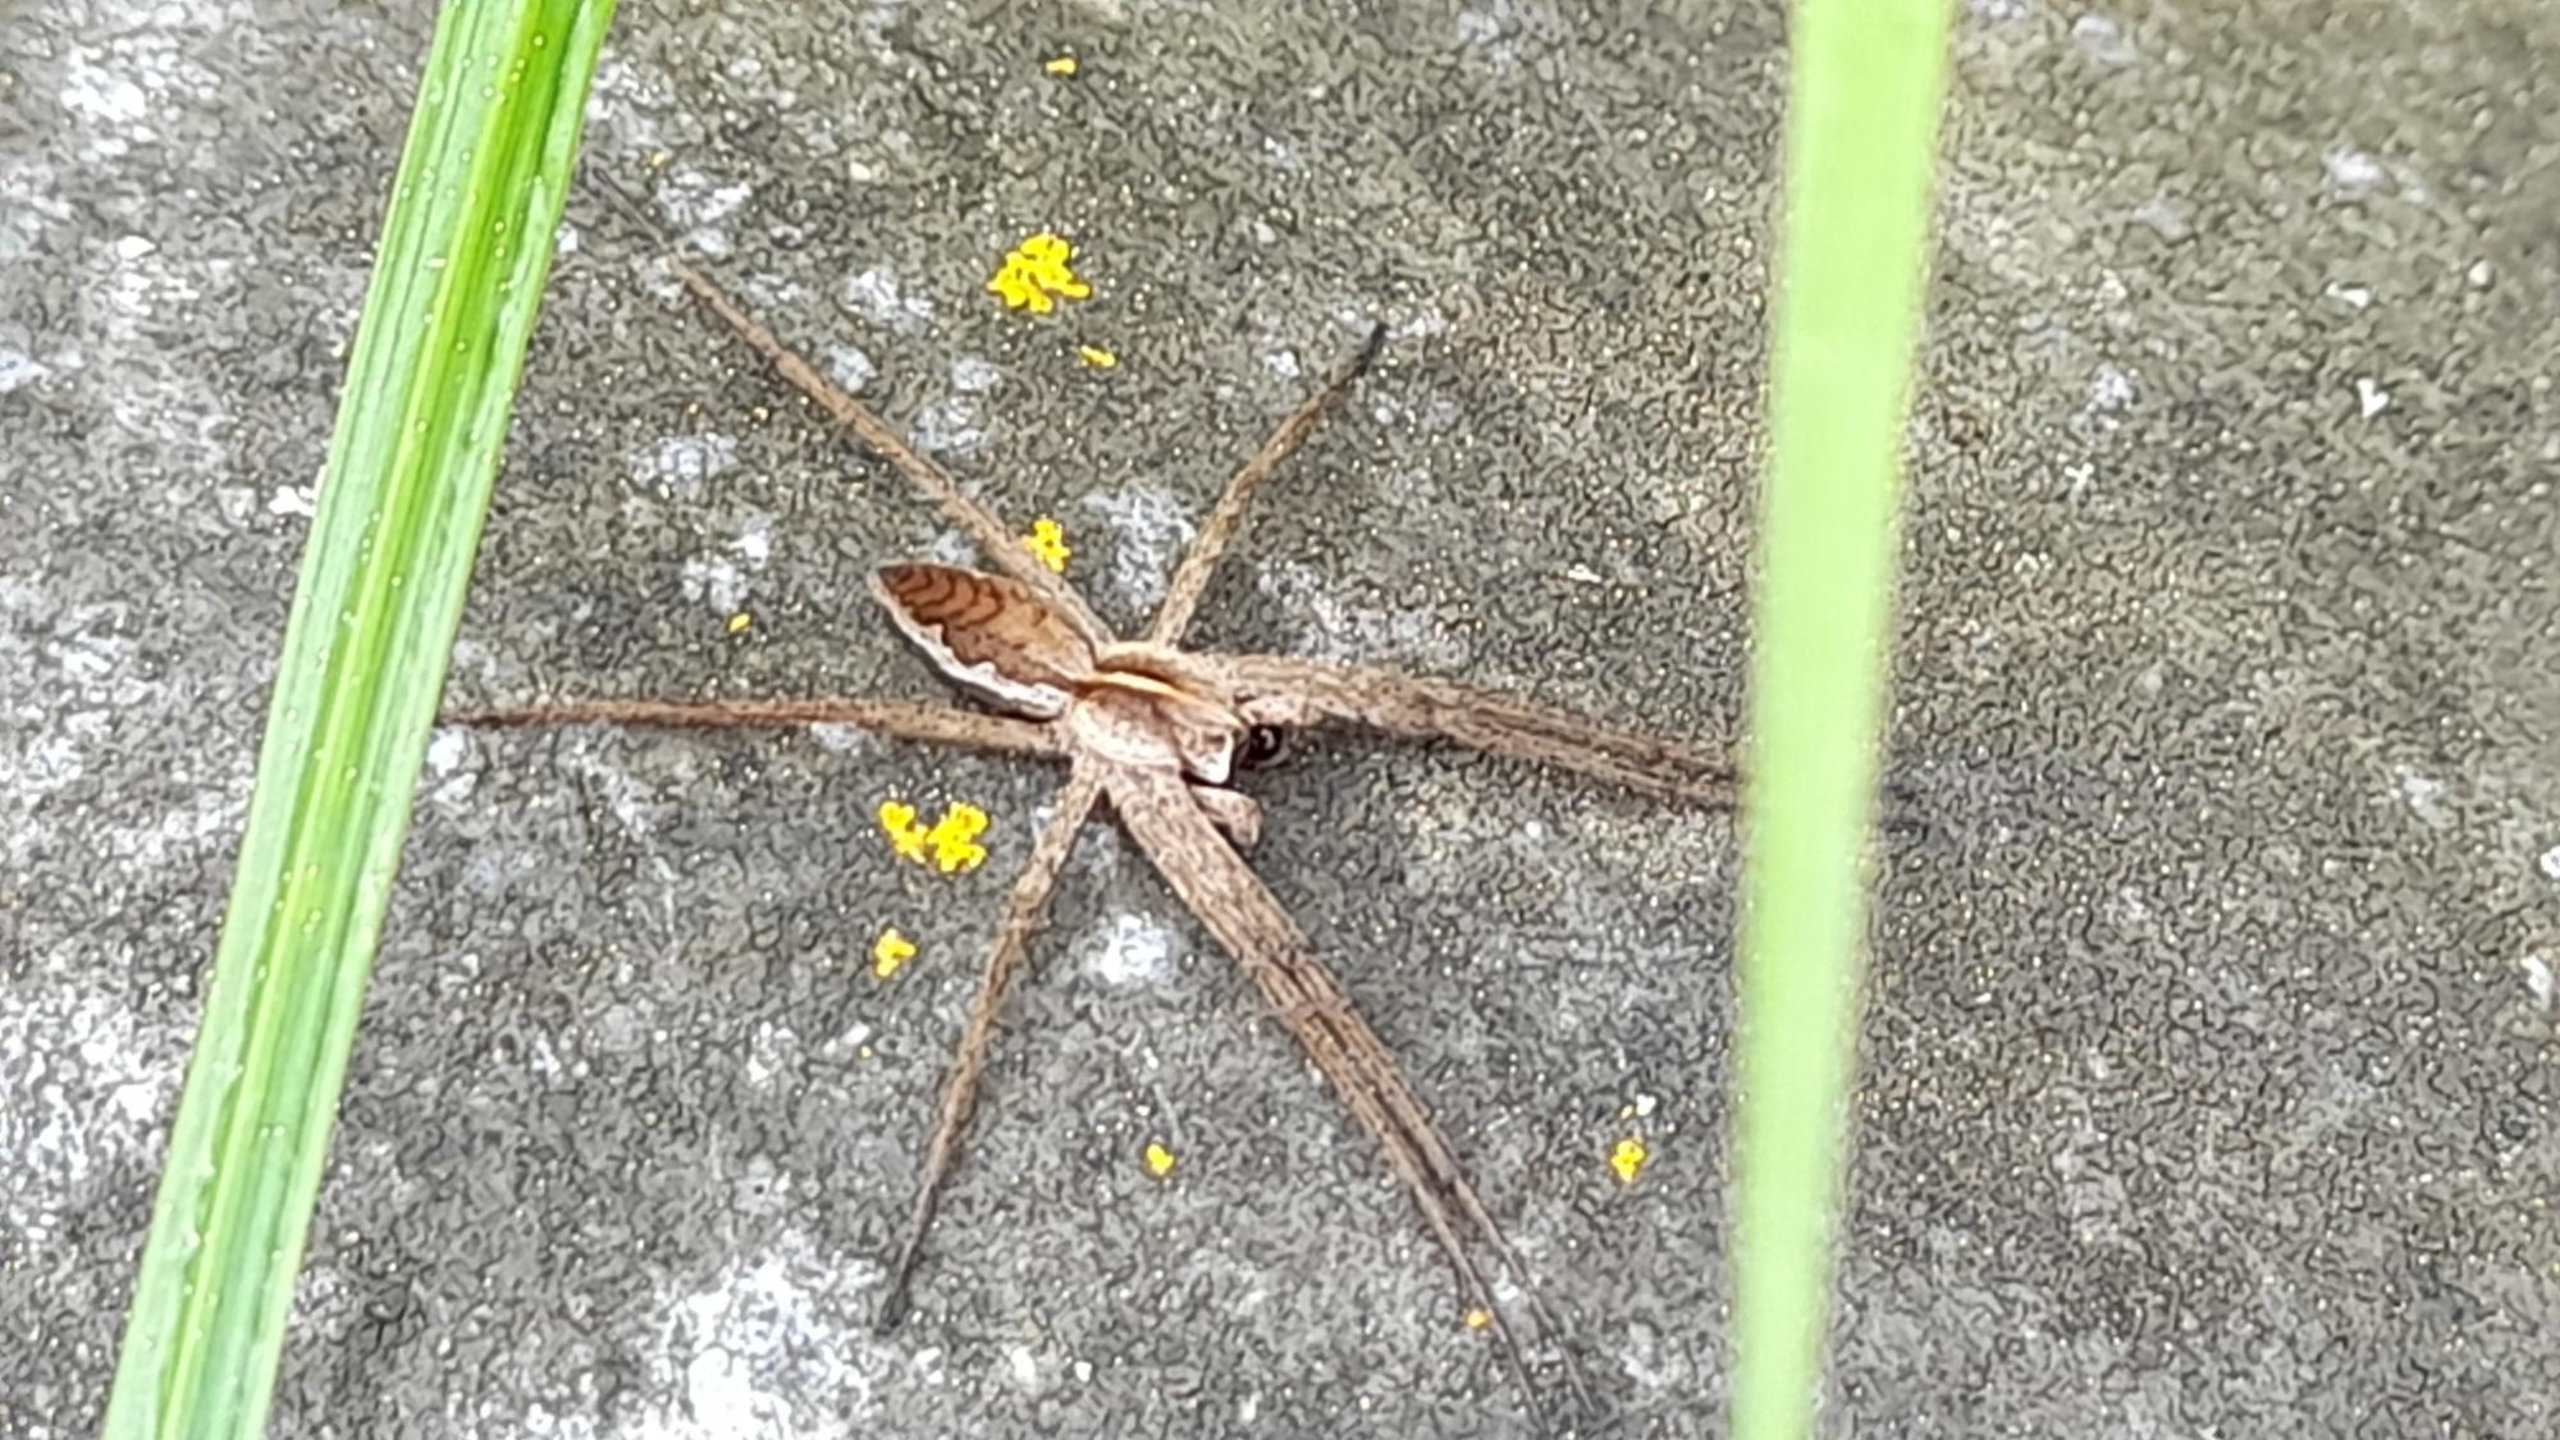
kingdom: Animalia
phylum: Arthropoda
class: Arachnida
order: Araneae
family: Pisauridae
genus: Pisaura
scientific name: Pisaura mirabilis
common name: Almindelig rovedderkop
